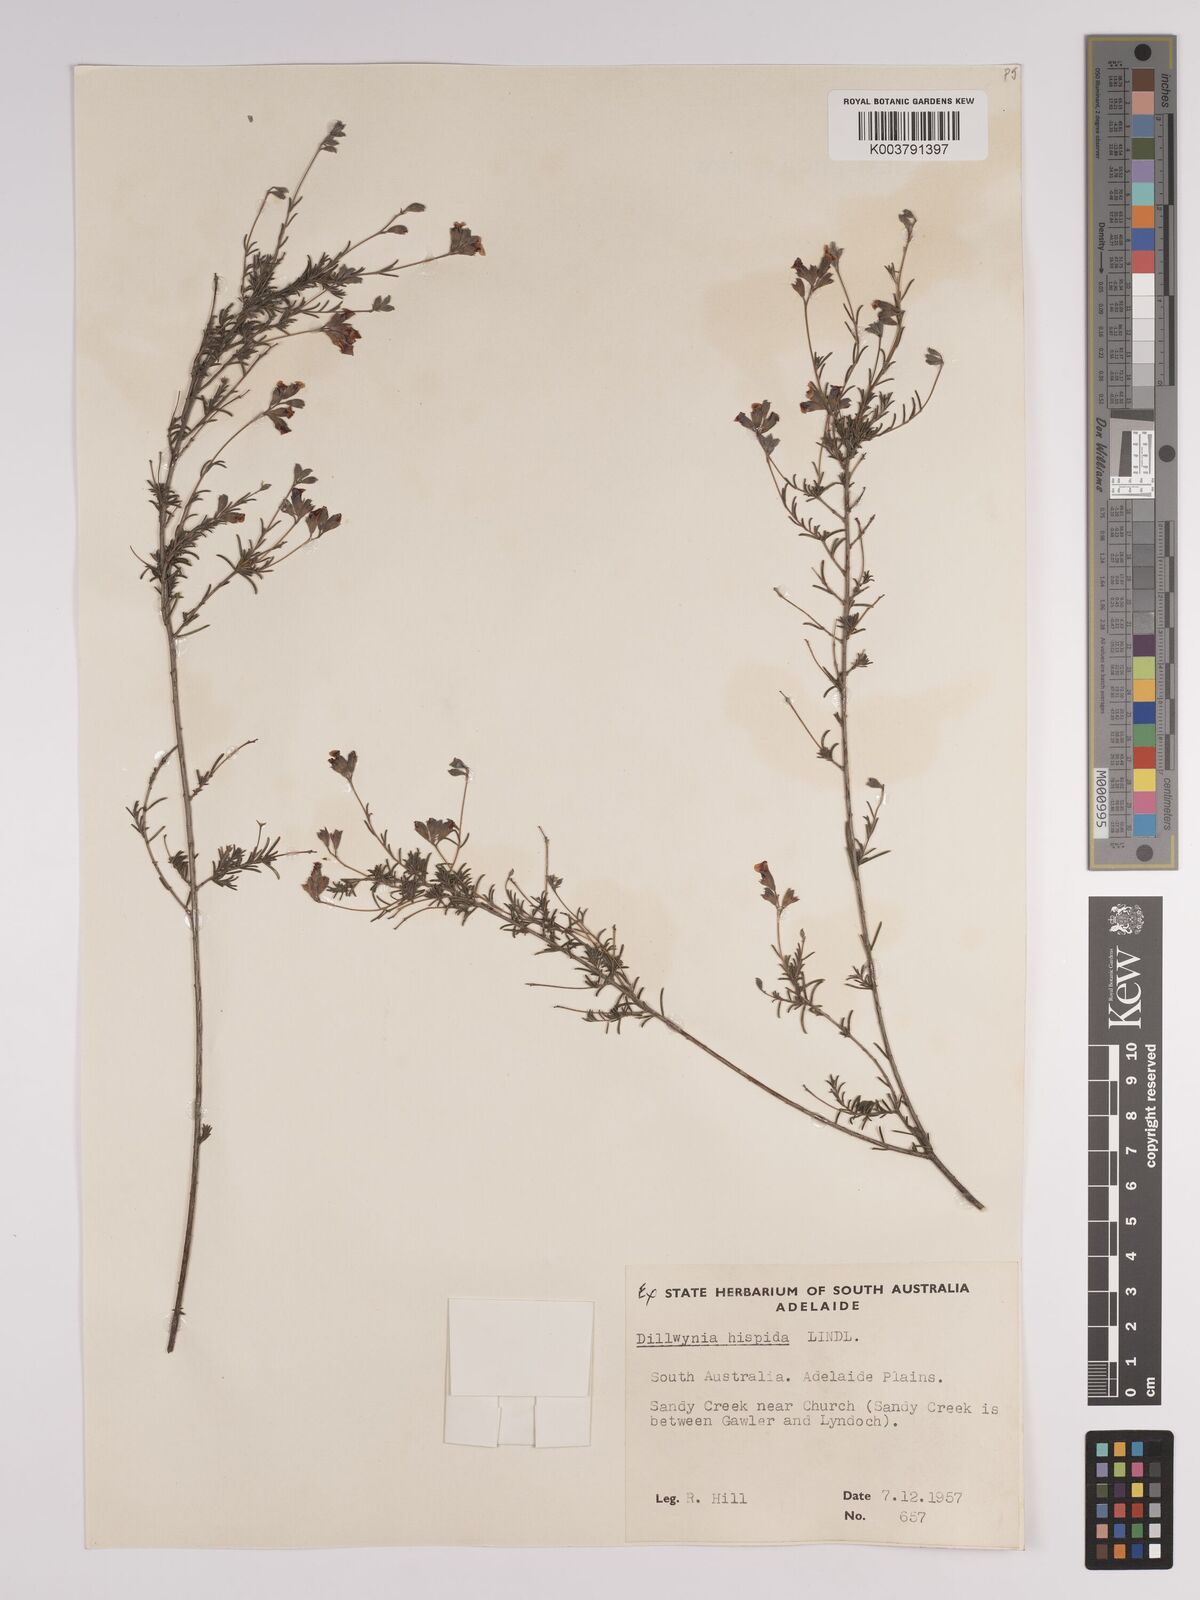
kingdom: Plantae
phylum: Tracheophyta
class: Magnoliopsida
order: Fabales
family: Fabaceae
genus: Dillwynia
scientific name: Dillwynia hispida
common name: Red parrot-pea
